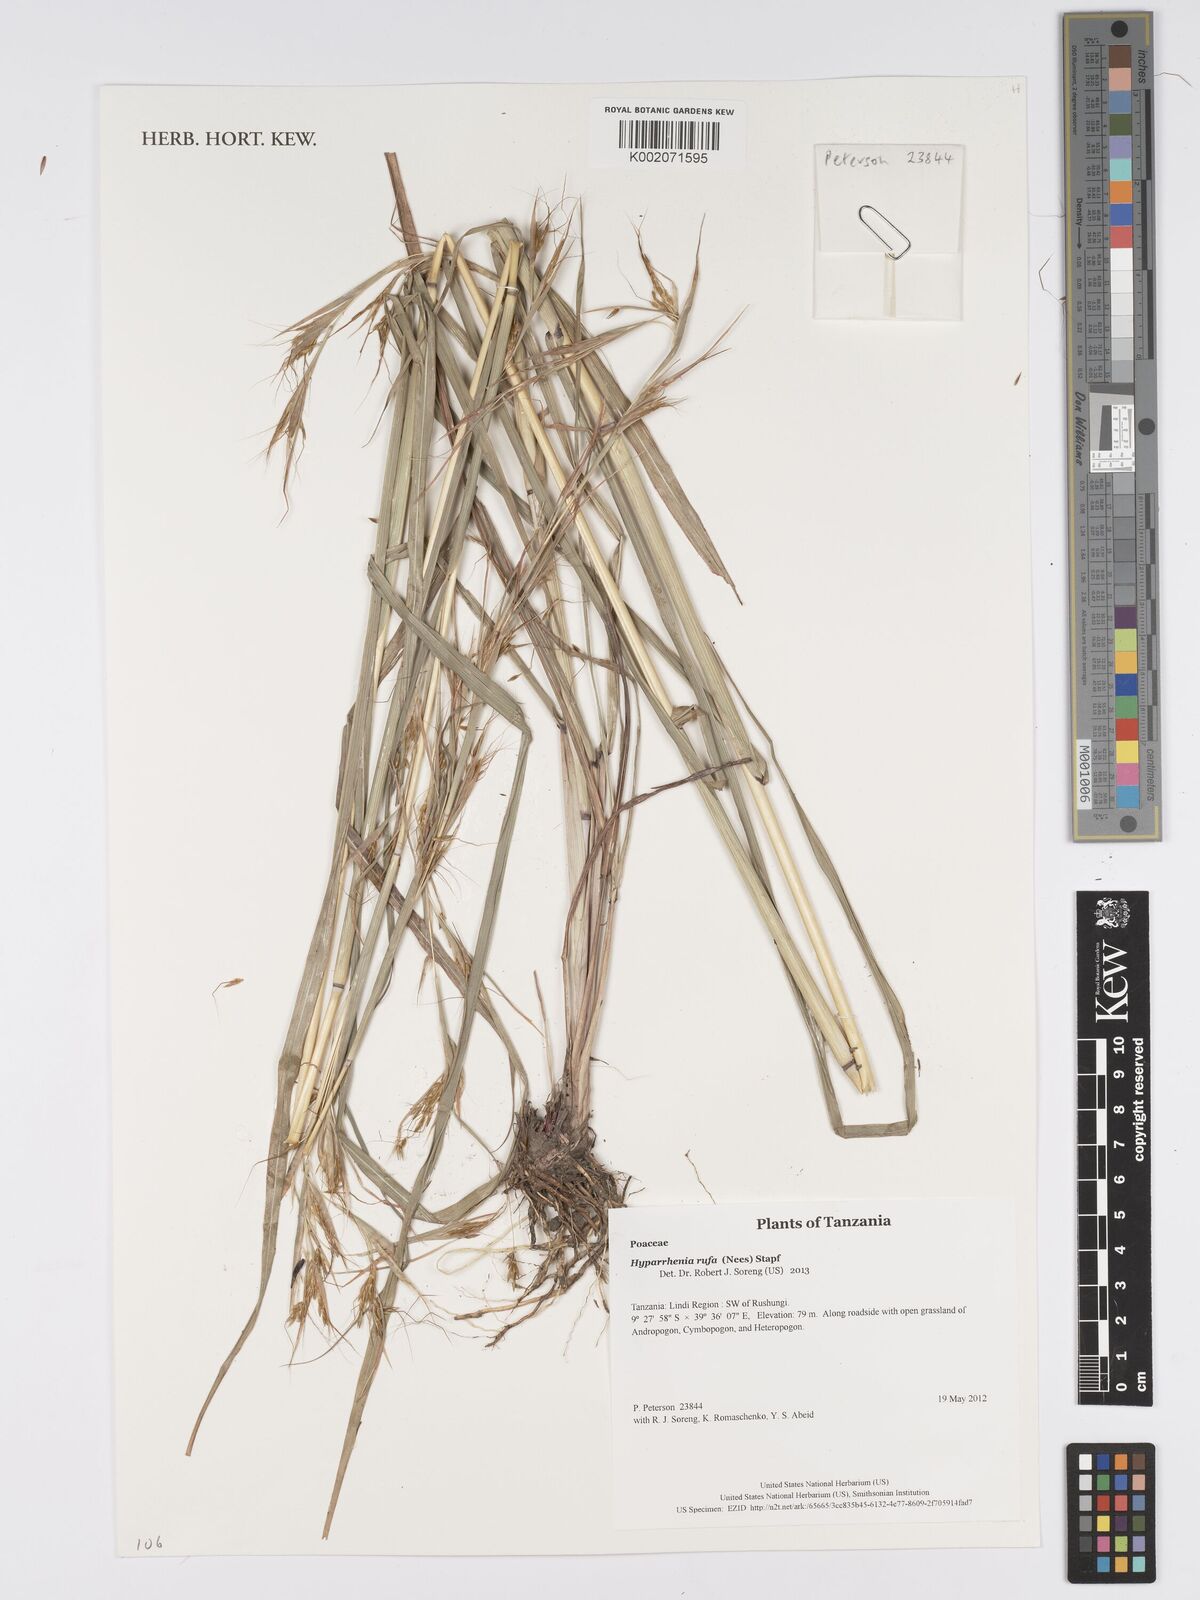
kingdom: Plantae
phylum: Tracheophyta
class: Liliopsida
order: Poales
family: Poaceae
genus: Hyparrhenia
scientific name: Hyparrhenia rufa
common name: Jaraguagrass
